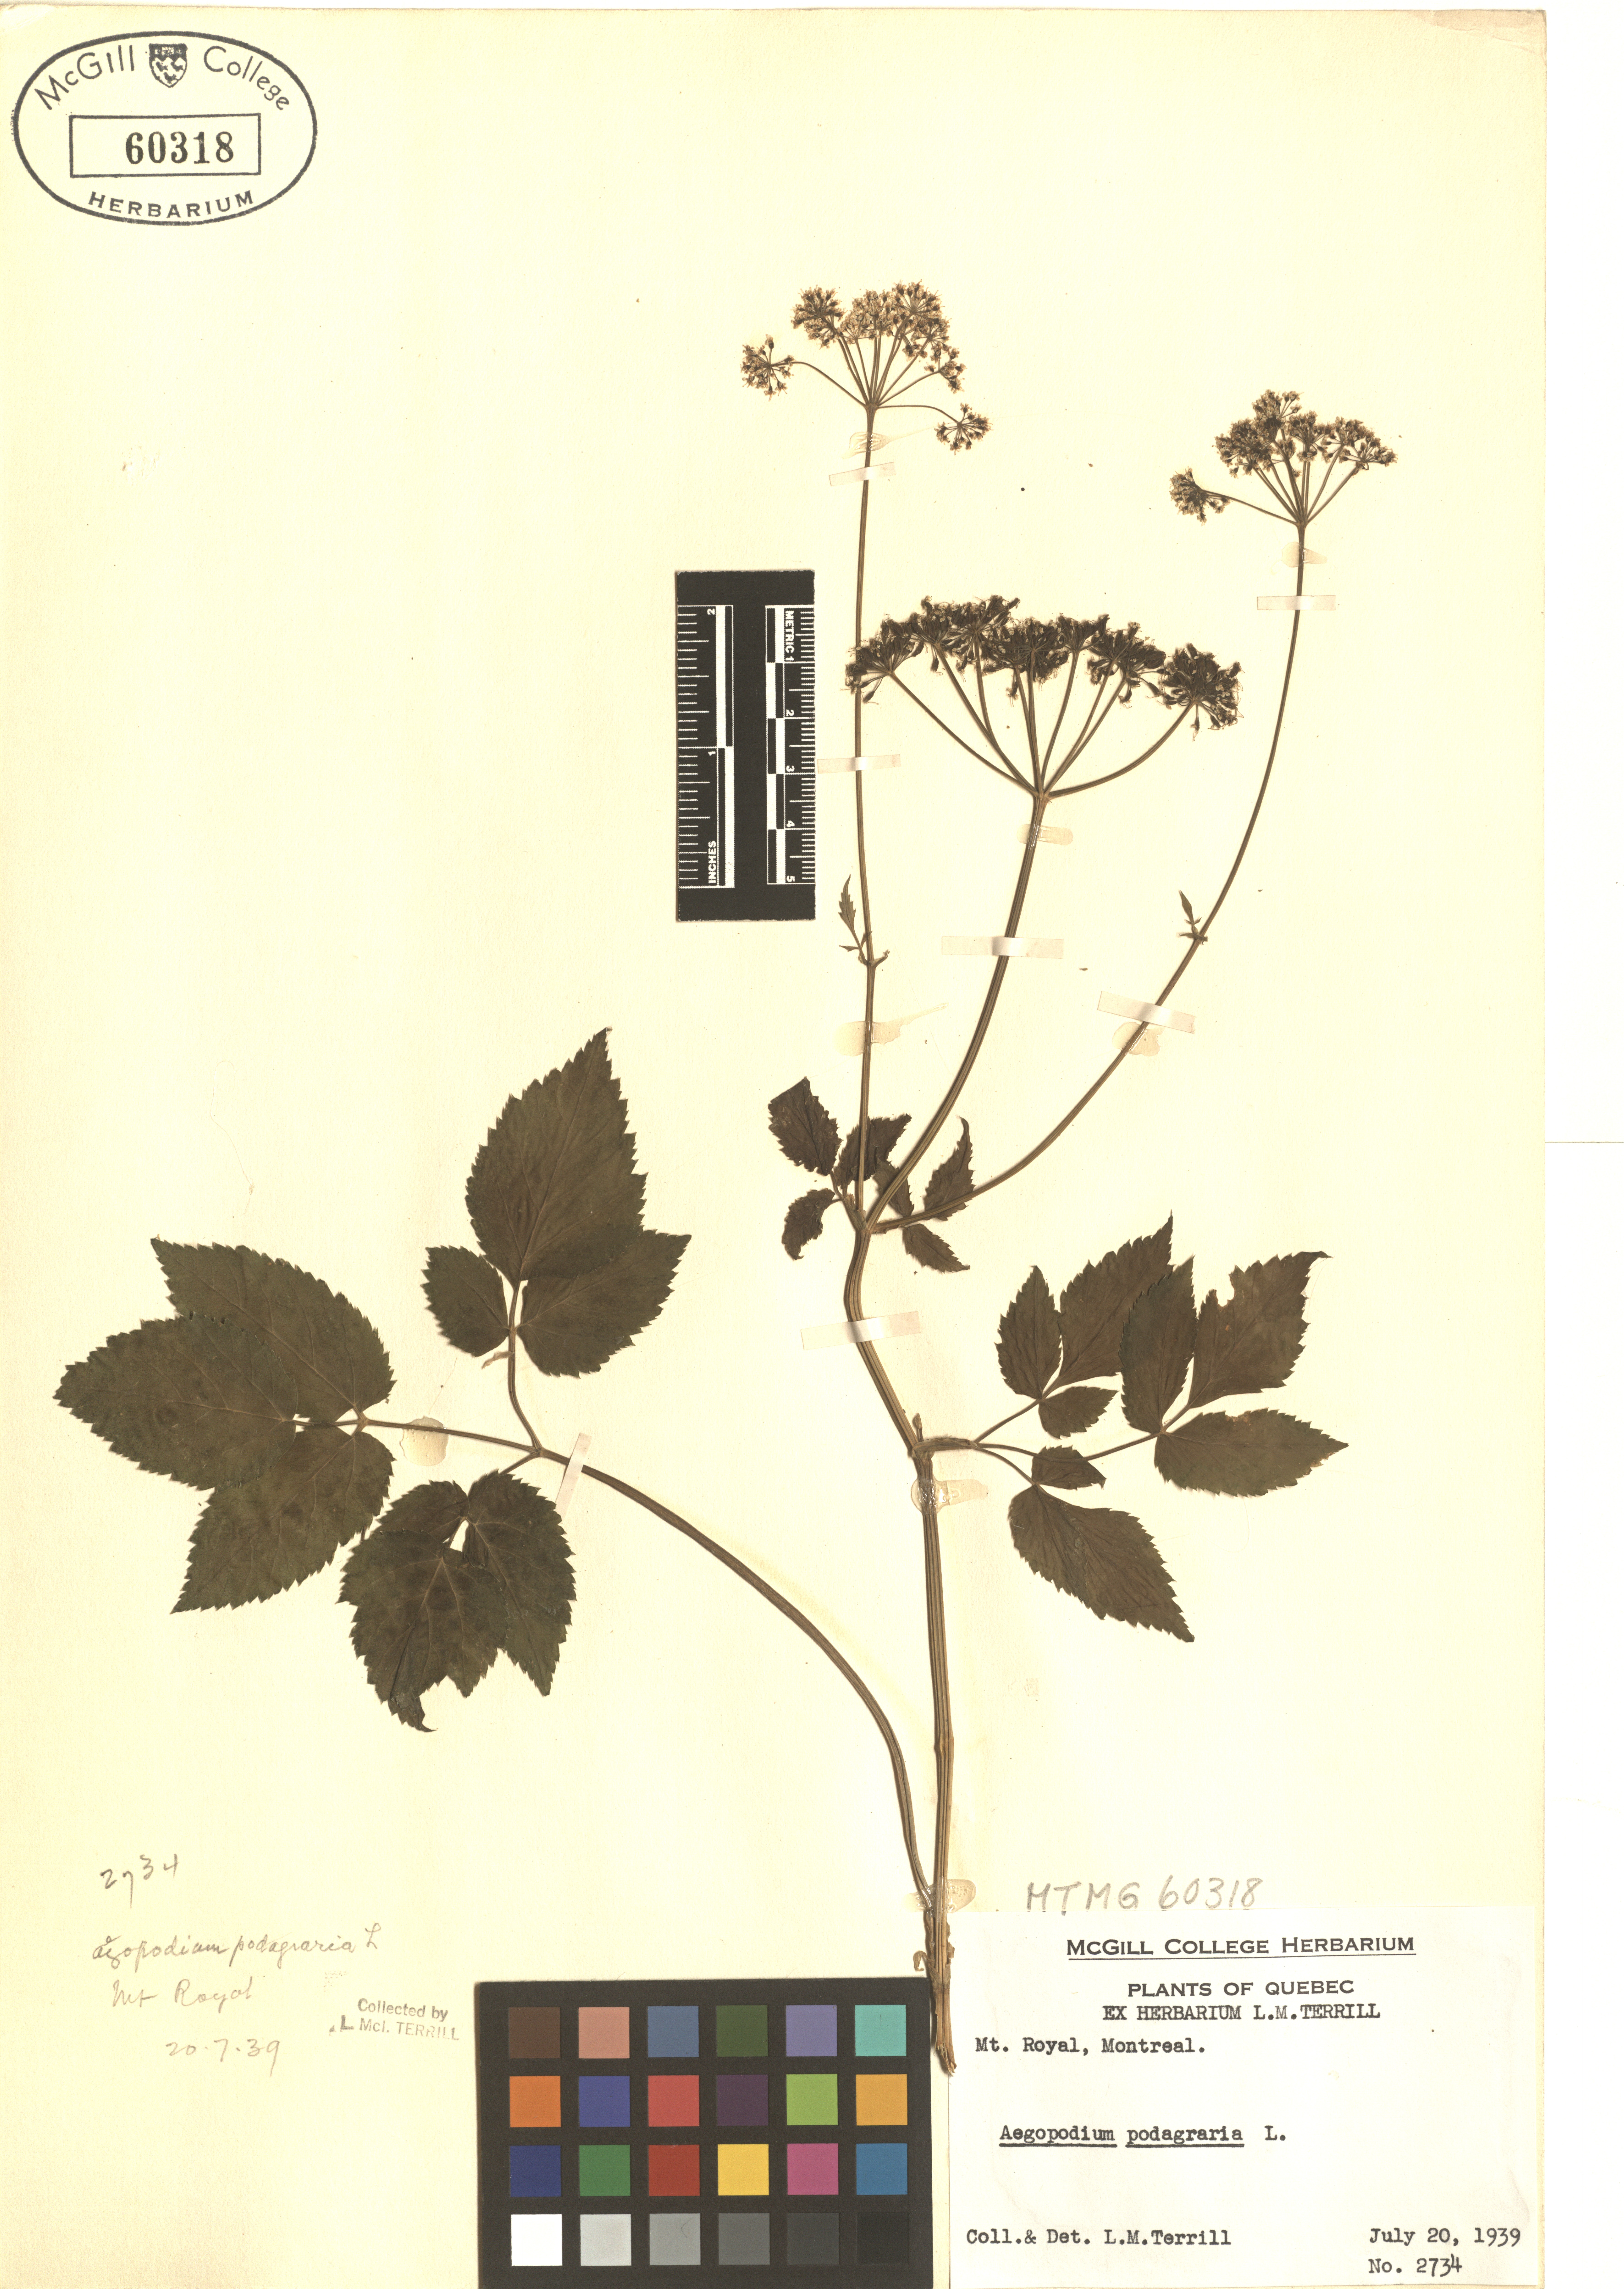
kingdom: Plantae
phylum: Tracheophyta
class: Magnoliopsida
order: Apiales
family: Apiaceae
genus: Aegopodium
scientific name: Aegopodium podagraria
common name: Ground-elder
